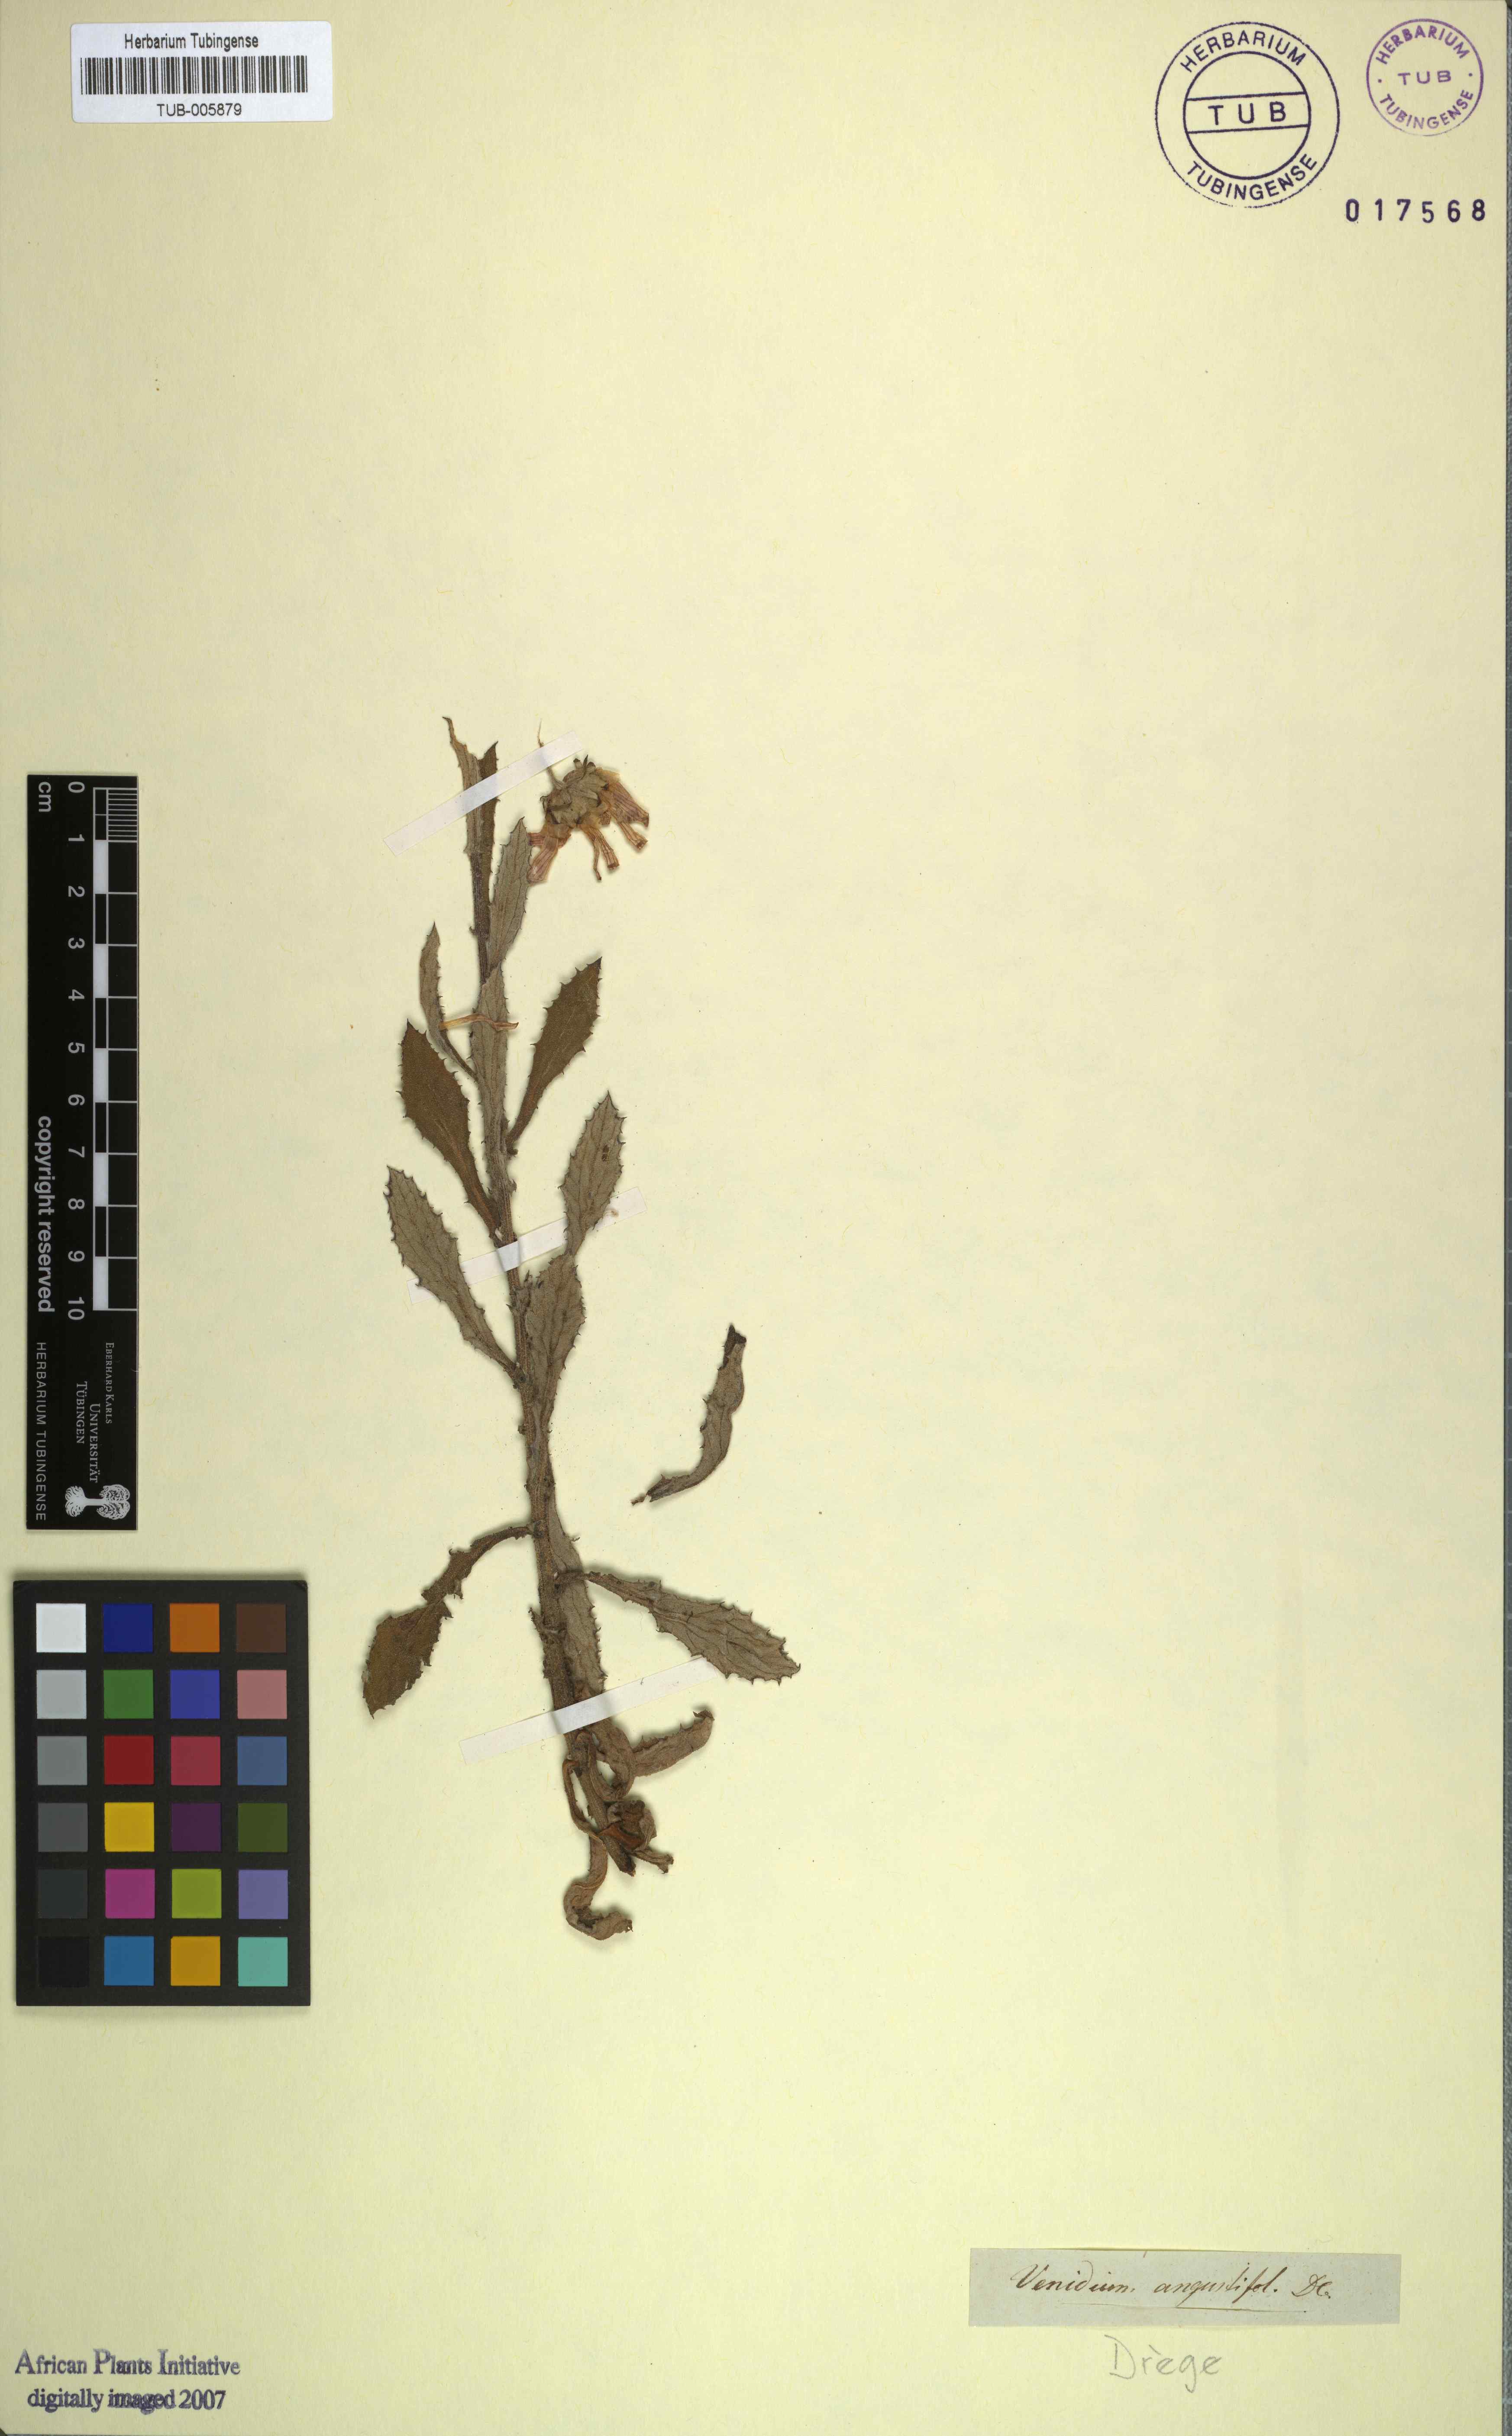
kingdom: Plantae
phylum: Tracheophyta
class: Magnoliopsida
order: Asterales
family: Asteraceae
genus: Arctotis
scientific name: Arctotis scabra
